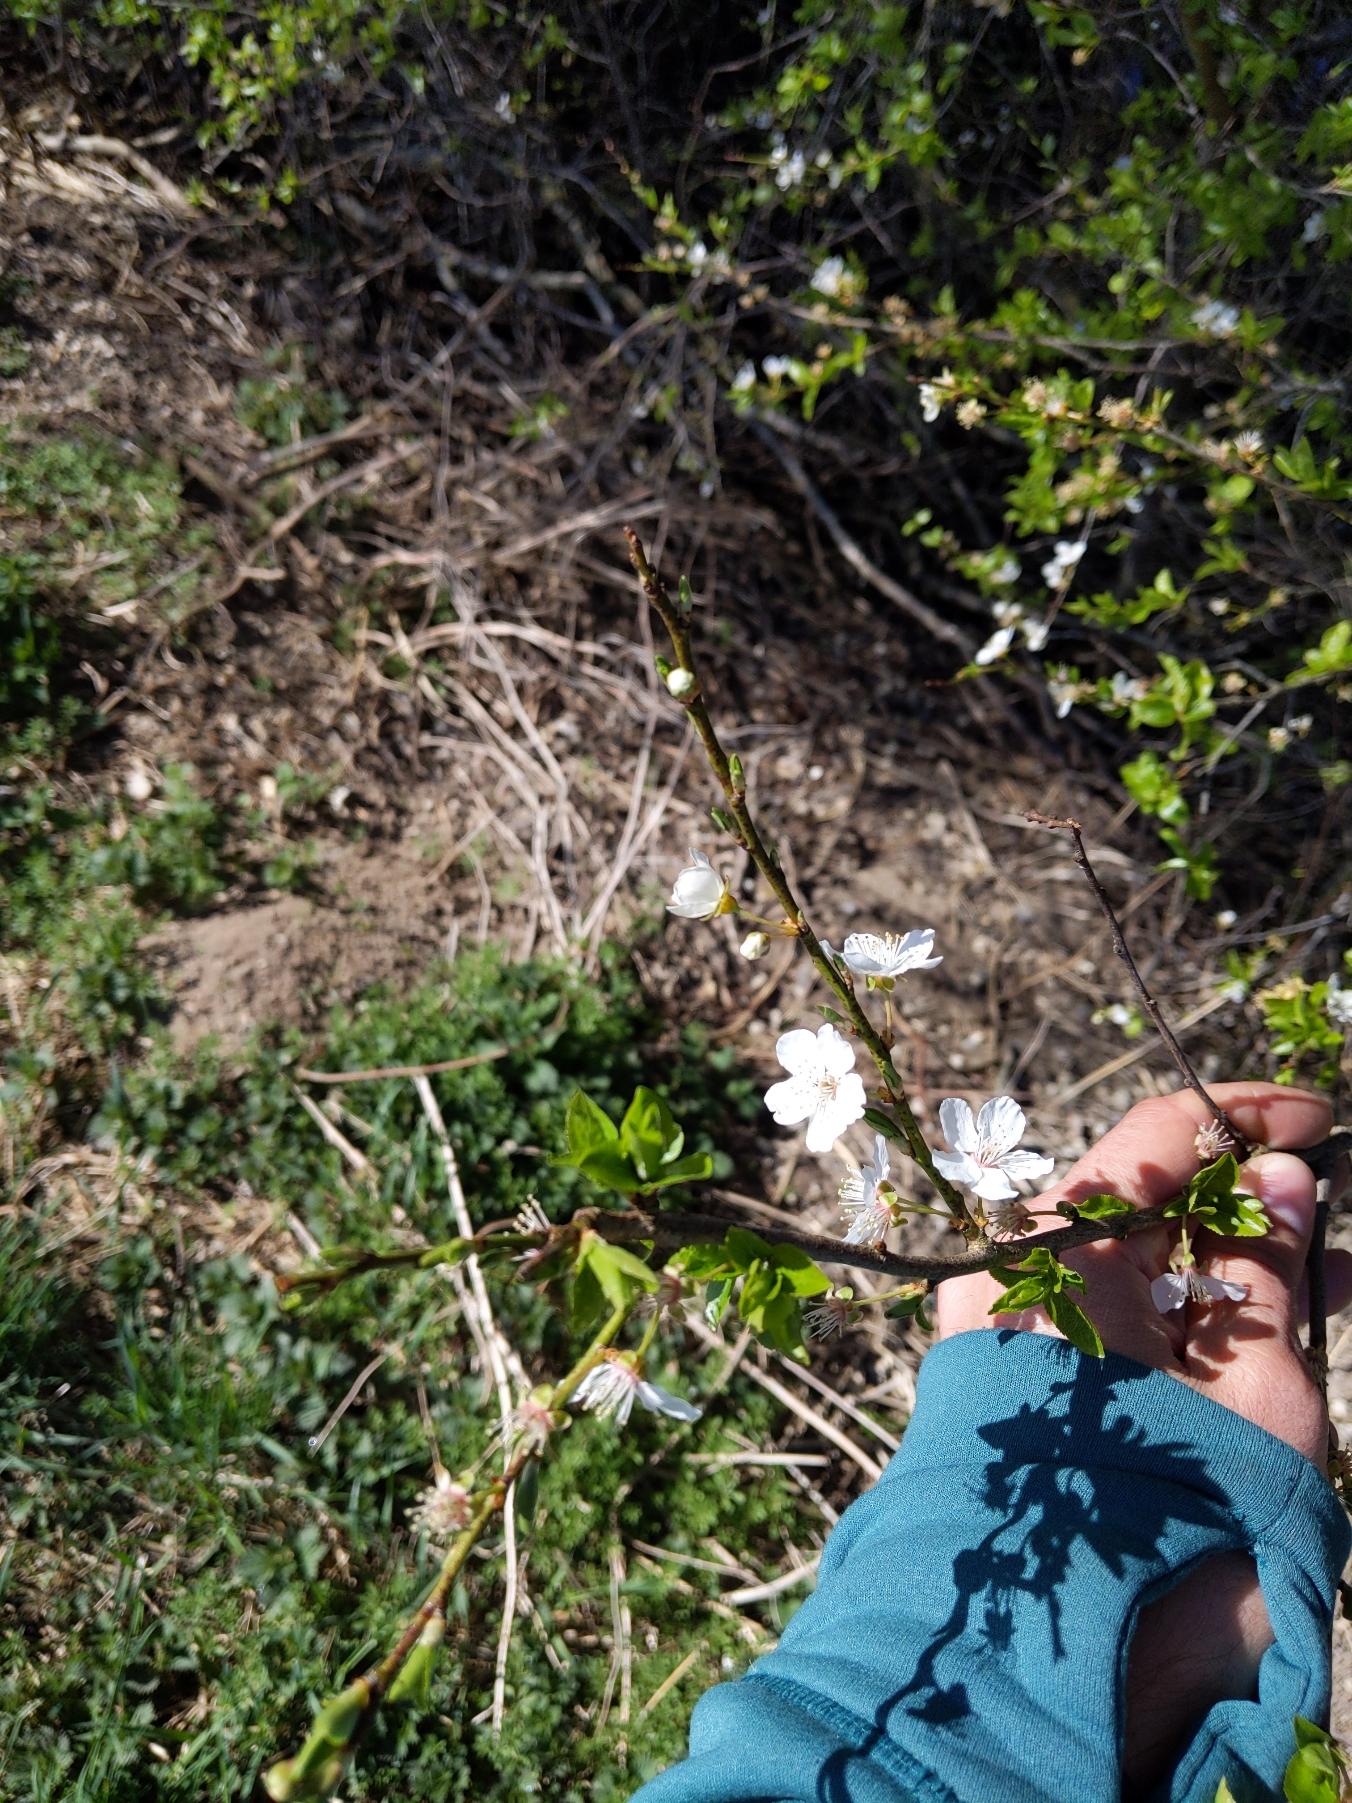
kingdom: Plantae
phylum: Tracheophyta
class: Magnoliopsida
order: Rosales
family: Rosaceae
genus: Prunus
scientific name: Prunus cerasifera
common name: Mirabel
